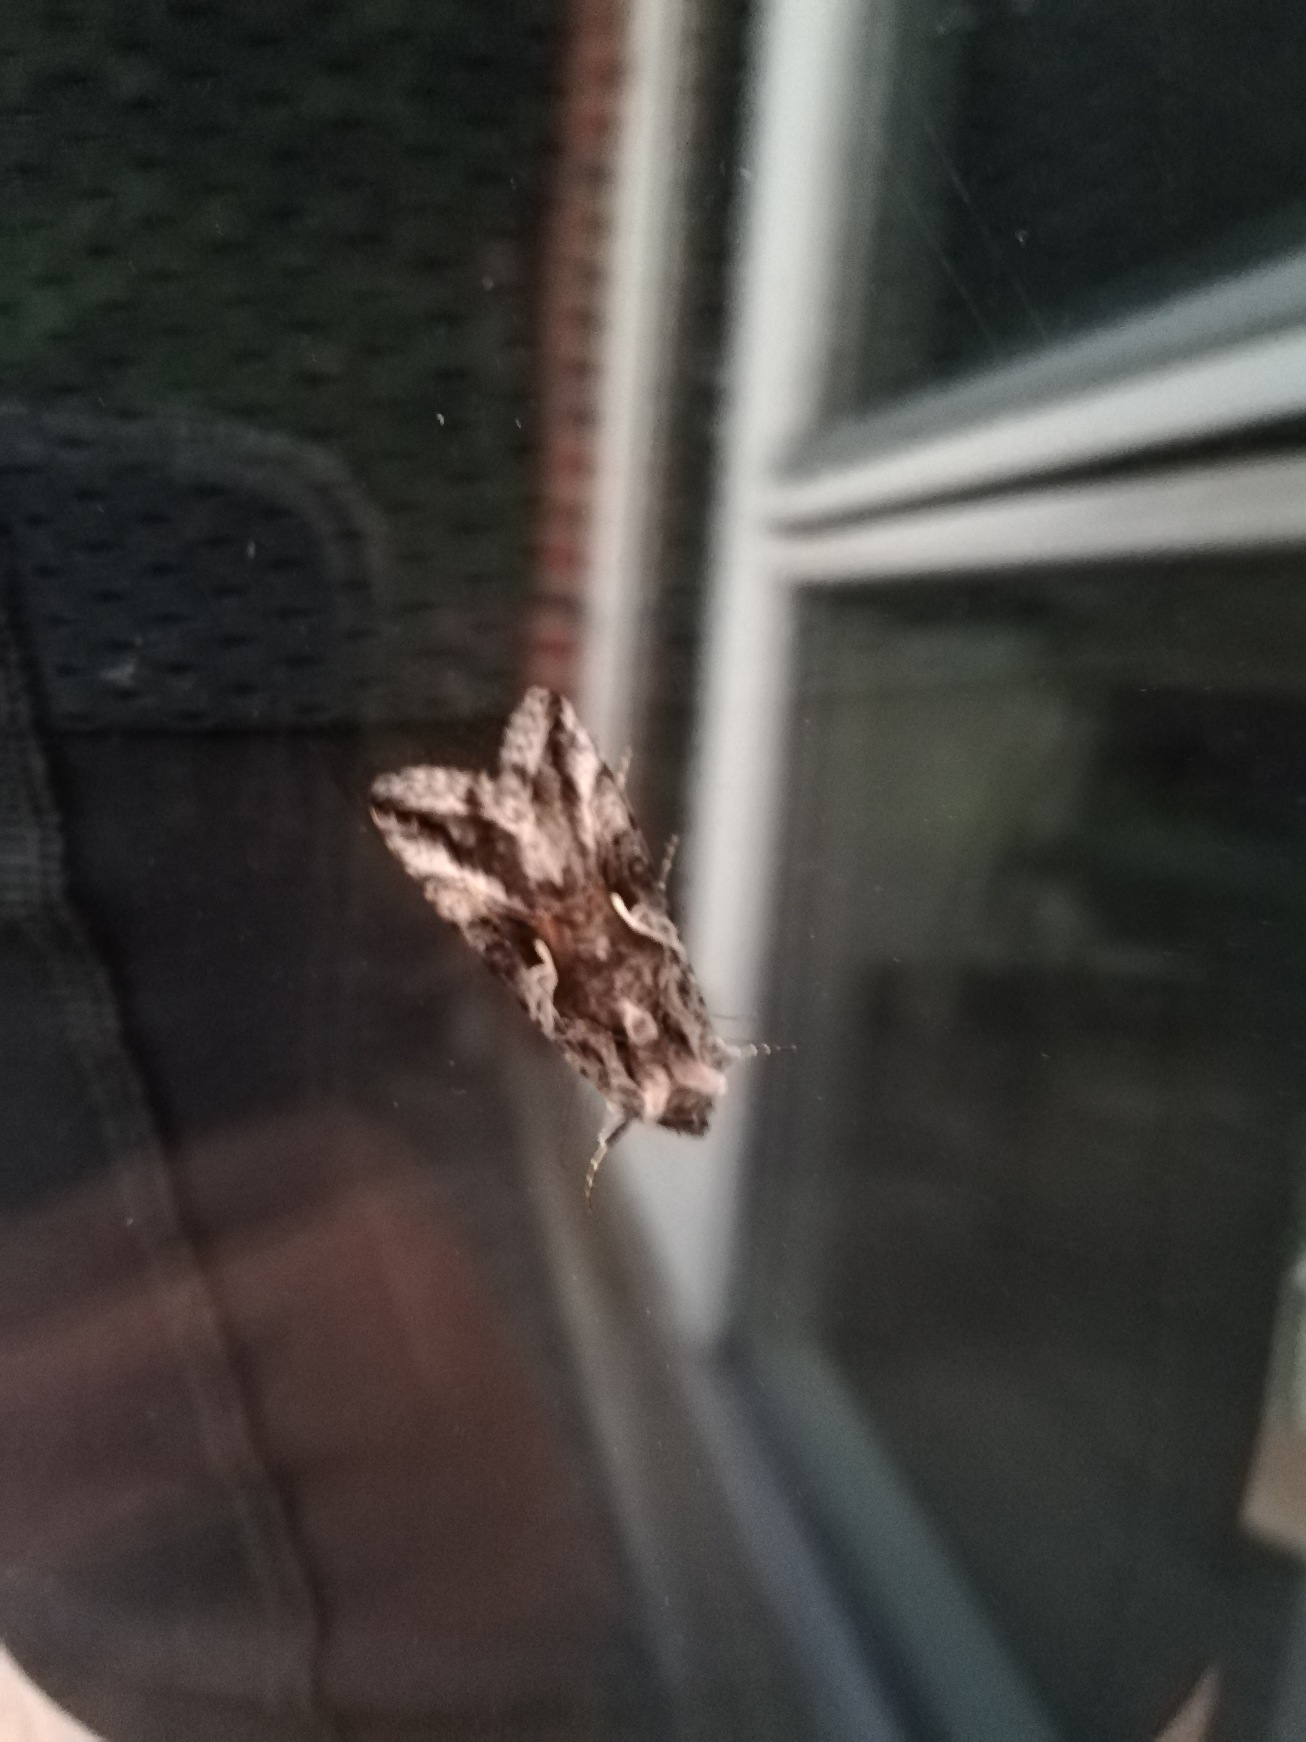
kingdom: Animalia
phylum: Arthropoda
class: Insecta
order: Lepidoptera
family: Noctuidae
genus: Autographa
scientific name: Autographa gamma
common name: Gammaugle
